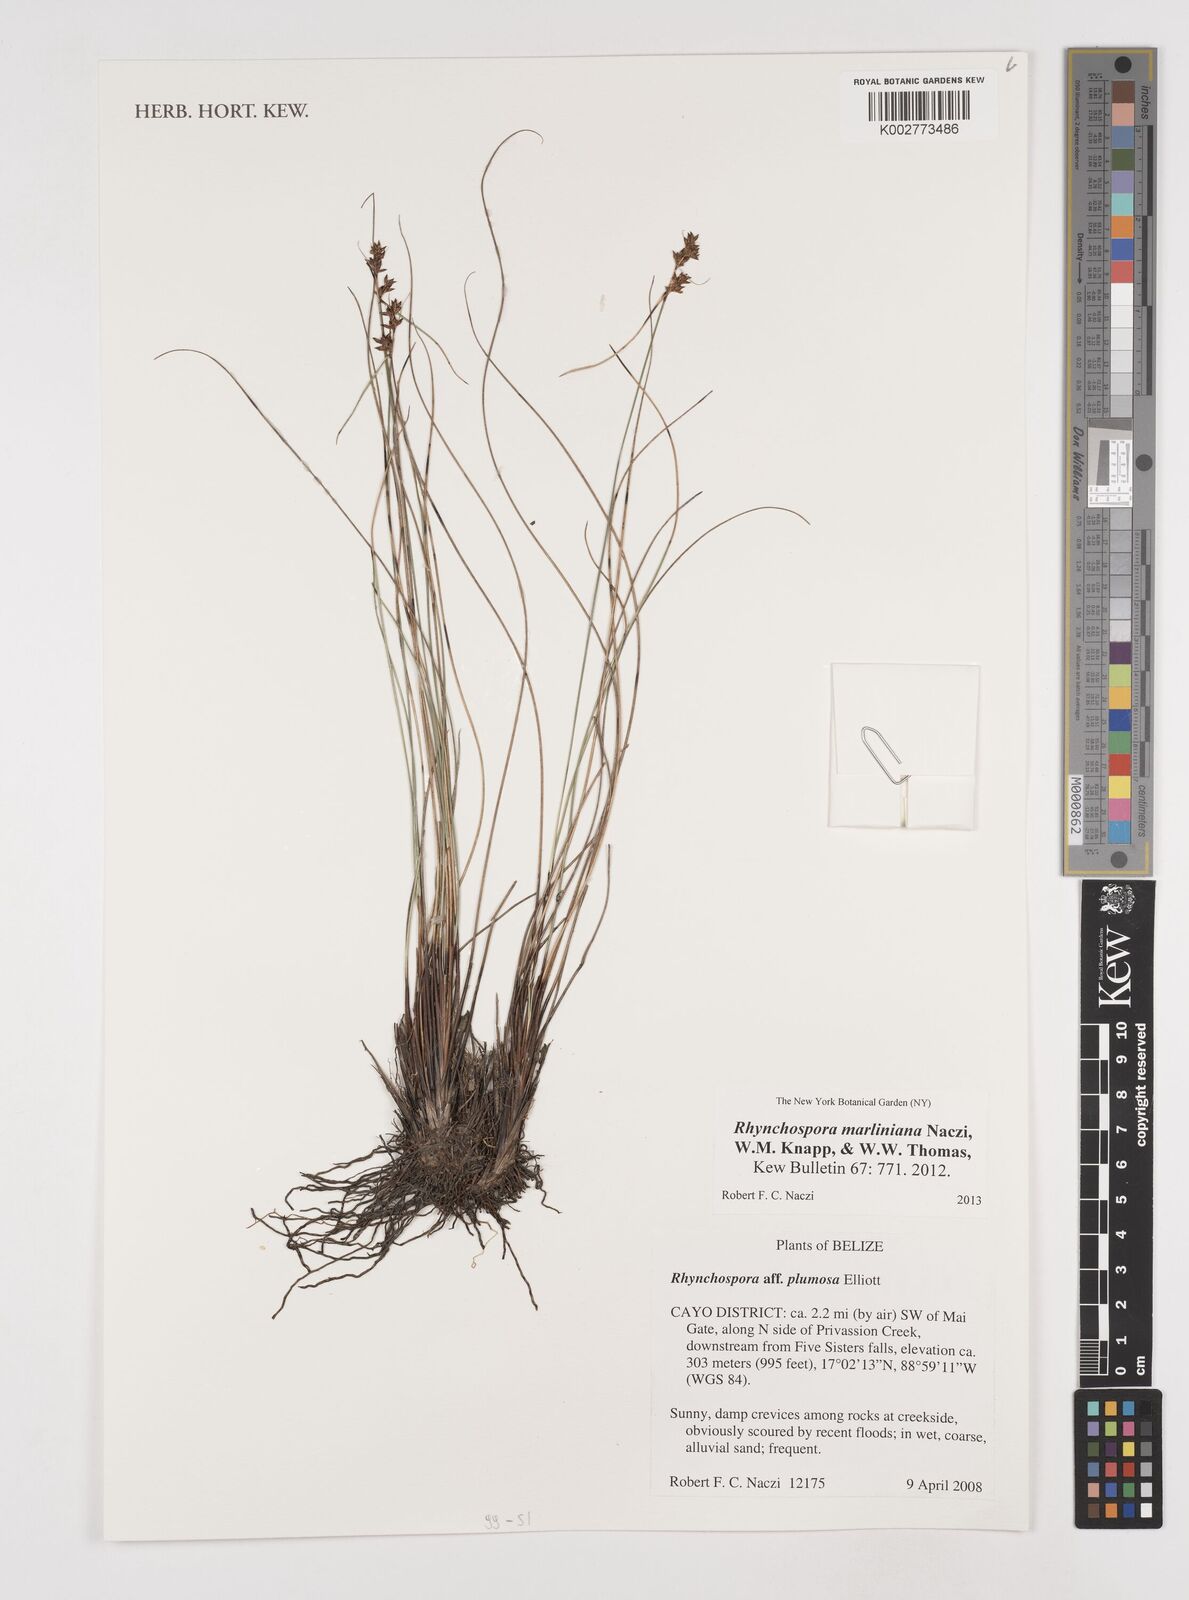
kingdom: Plantae
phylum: Tracheophyta
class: Liliopsida
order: Poales
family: Cyperaceae
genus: Rhynchospora
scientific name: Rhynchospora tenuiflora
